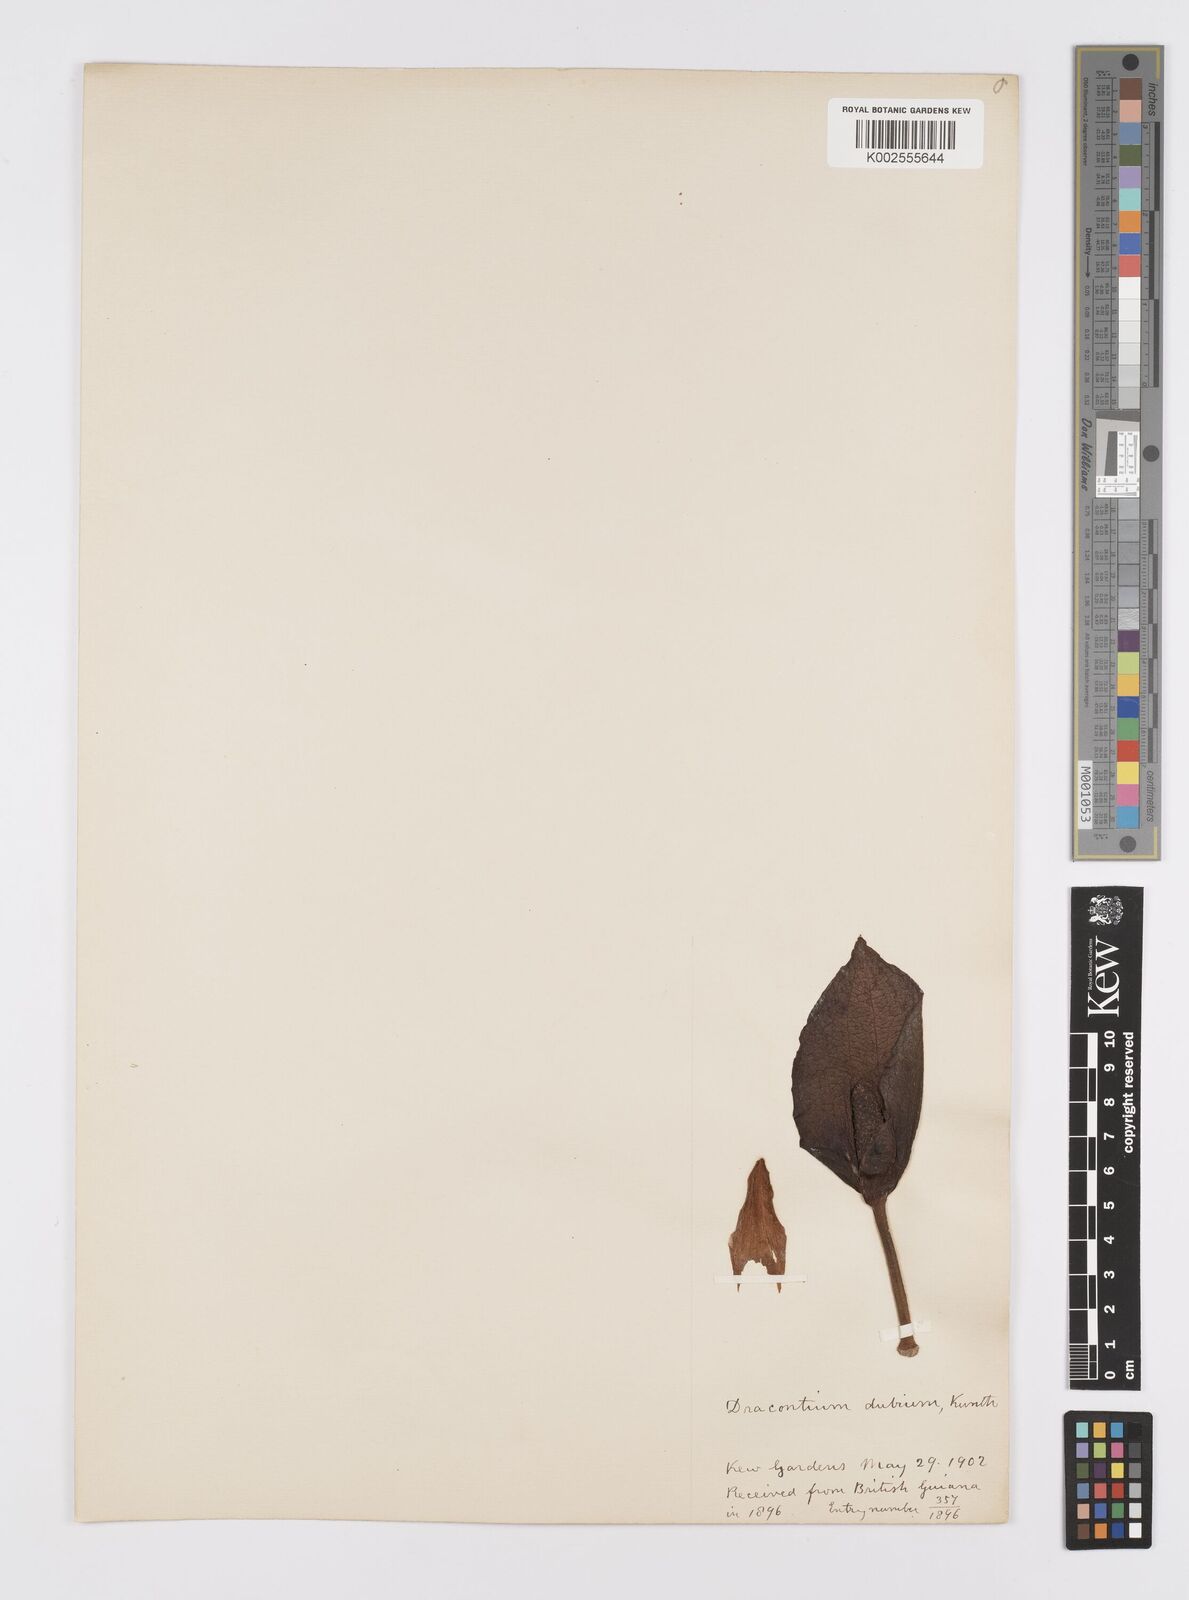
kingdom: Plantae
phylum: Tracheophyta
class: Liliopsida
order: Alismatales
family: Araceae
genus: Dracontium
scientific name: Dracontium dubium
